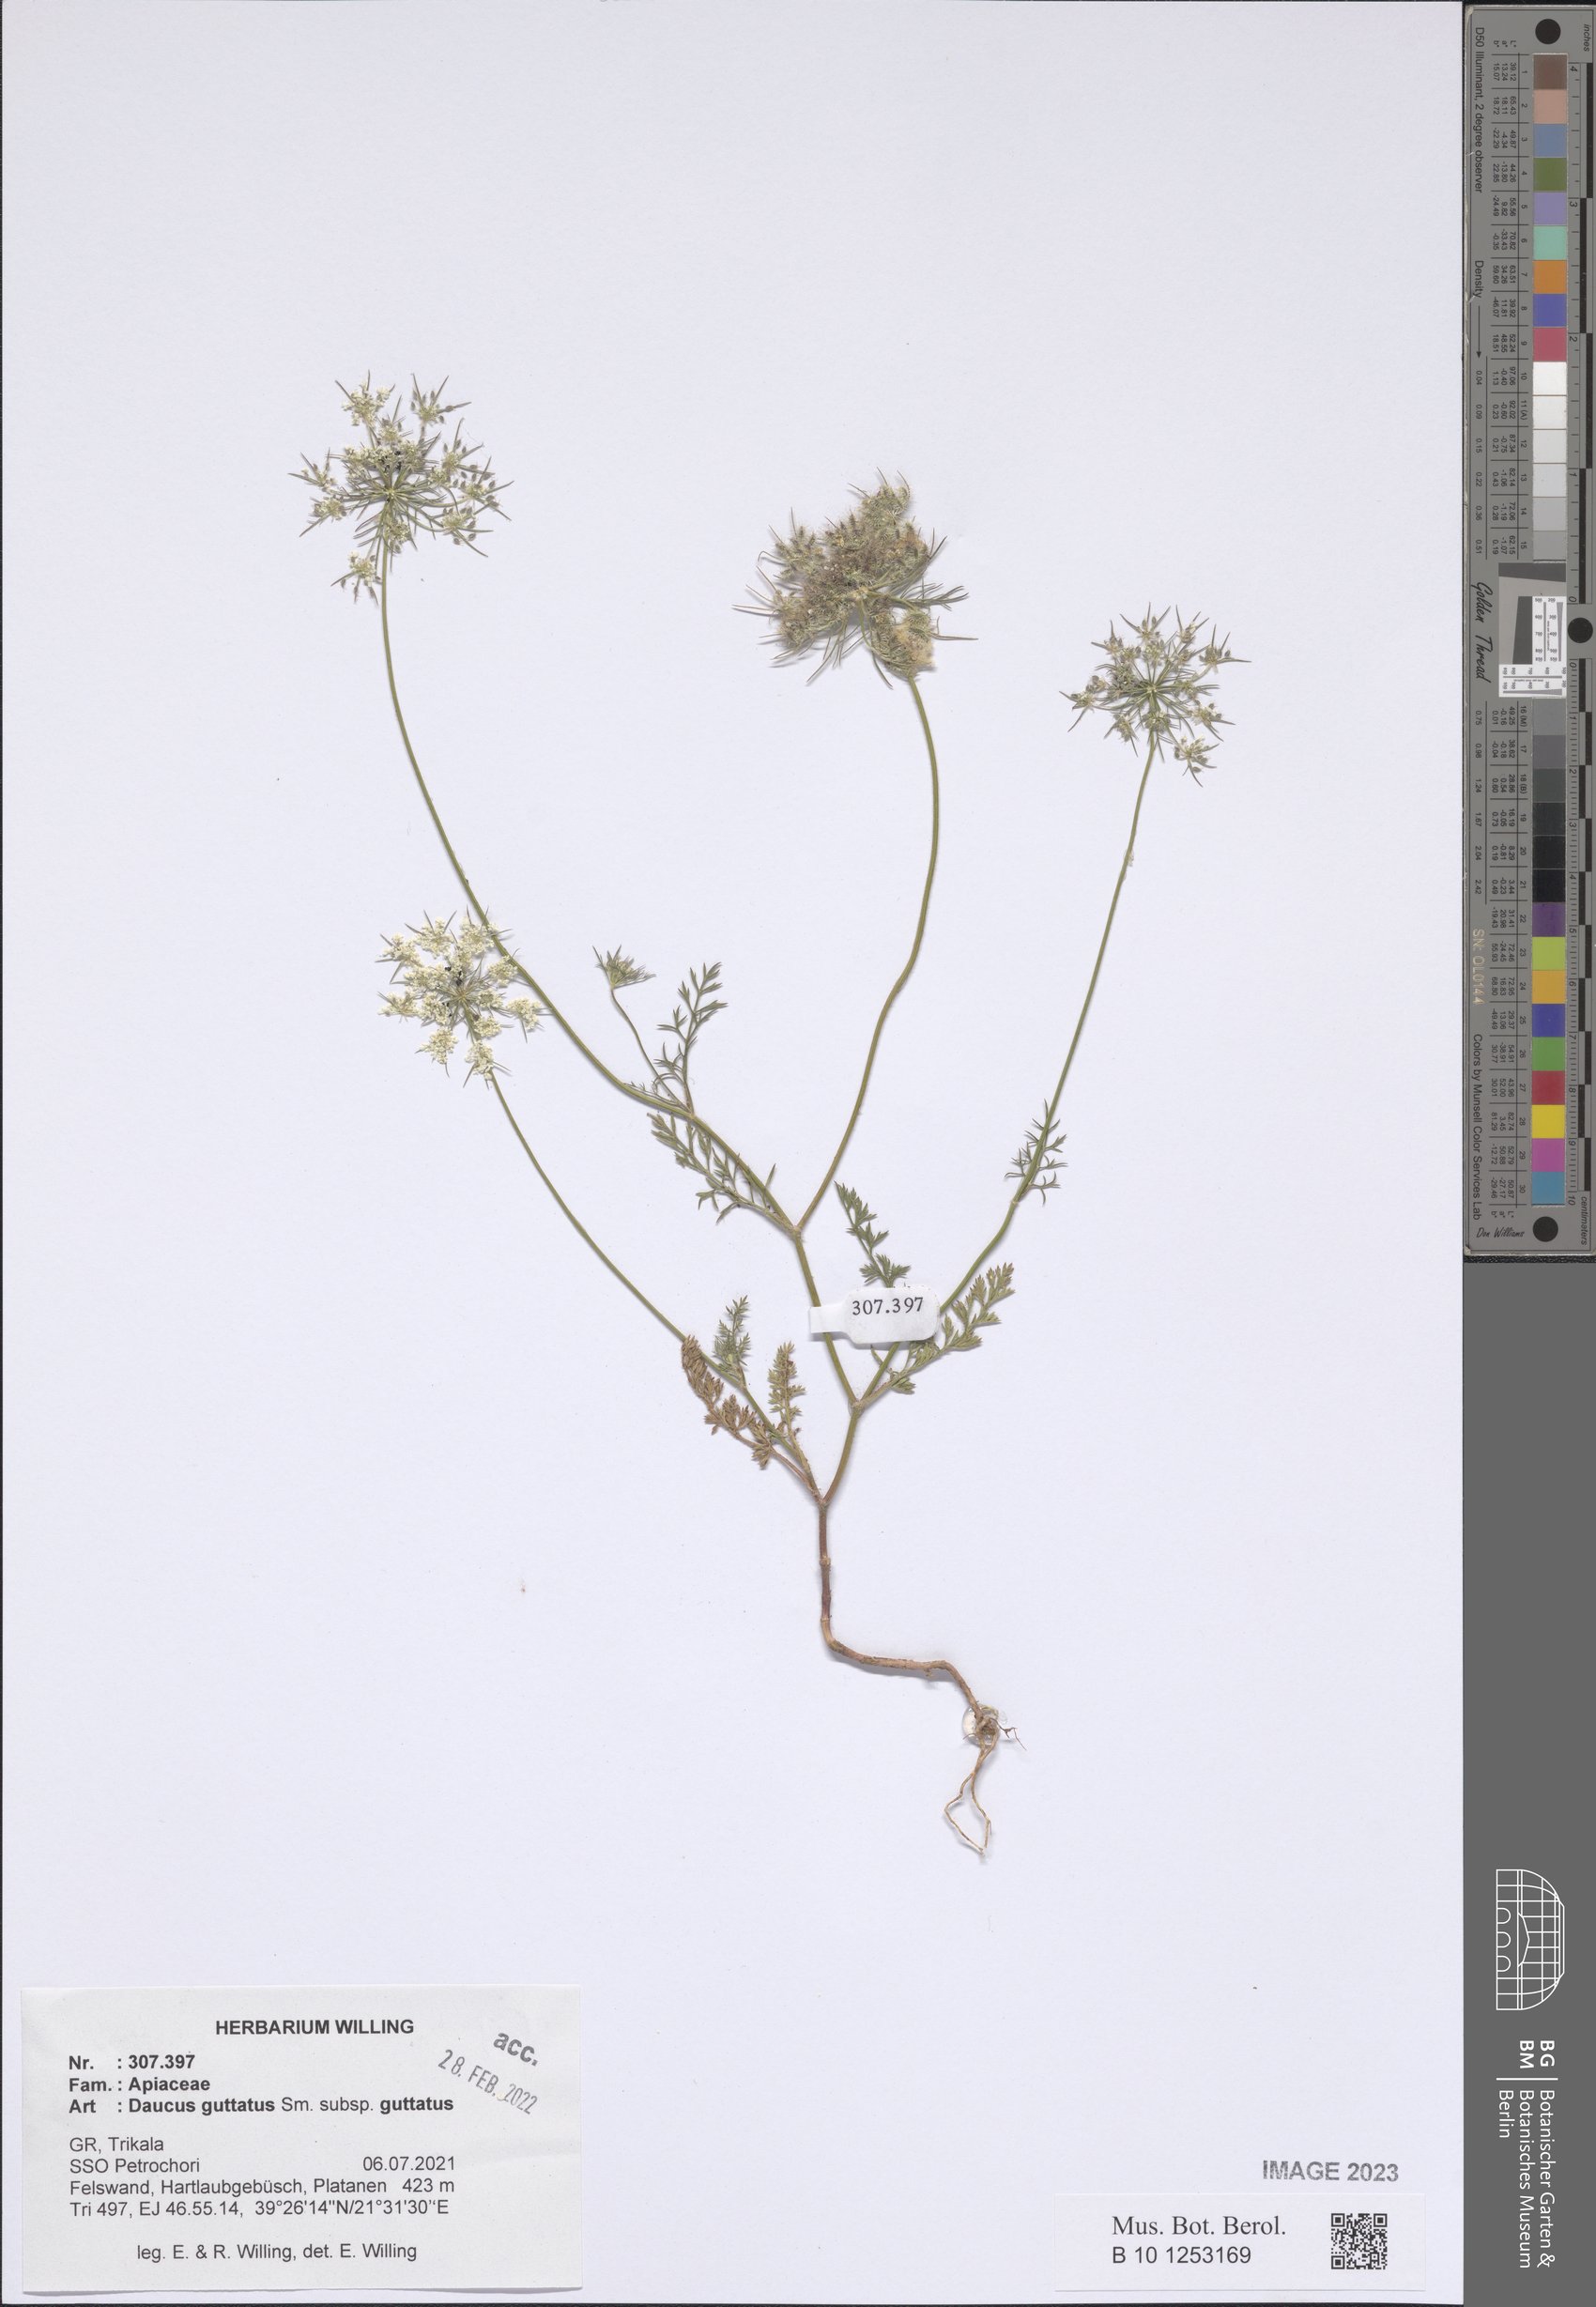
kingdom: Plantae
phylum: Tracheophyta
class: Magnoliopsida
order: Apiales
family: Apiaceae
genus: Daucus
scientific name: Daucus guttatus
